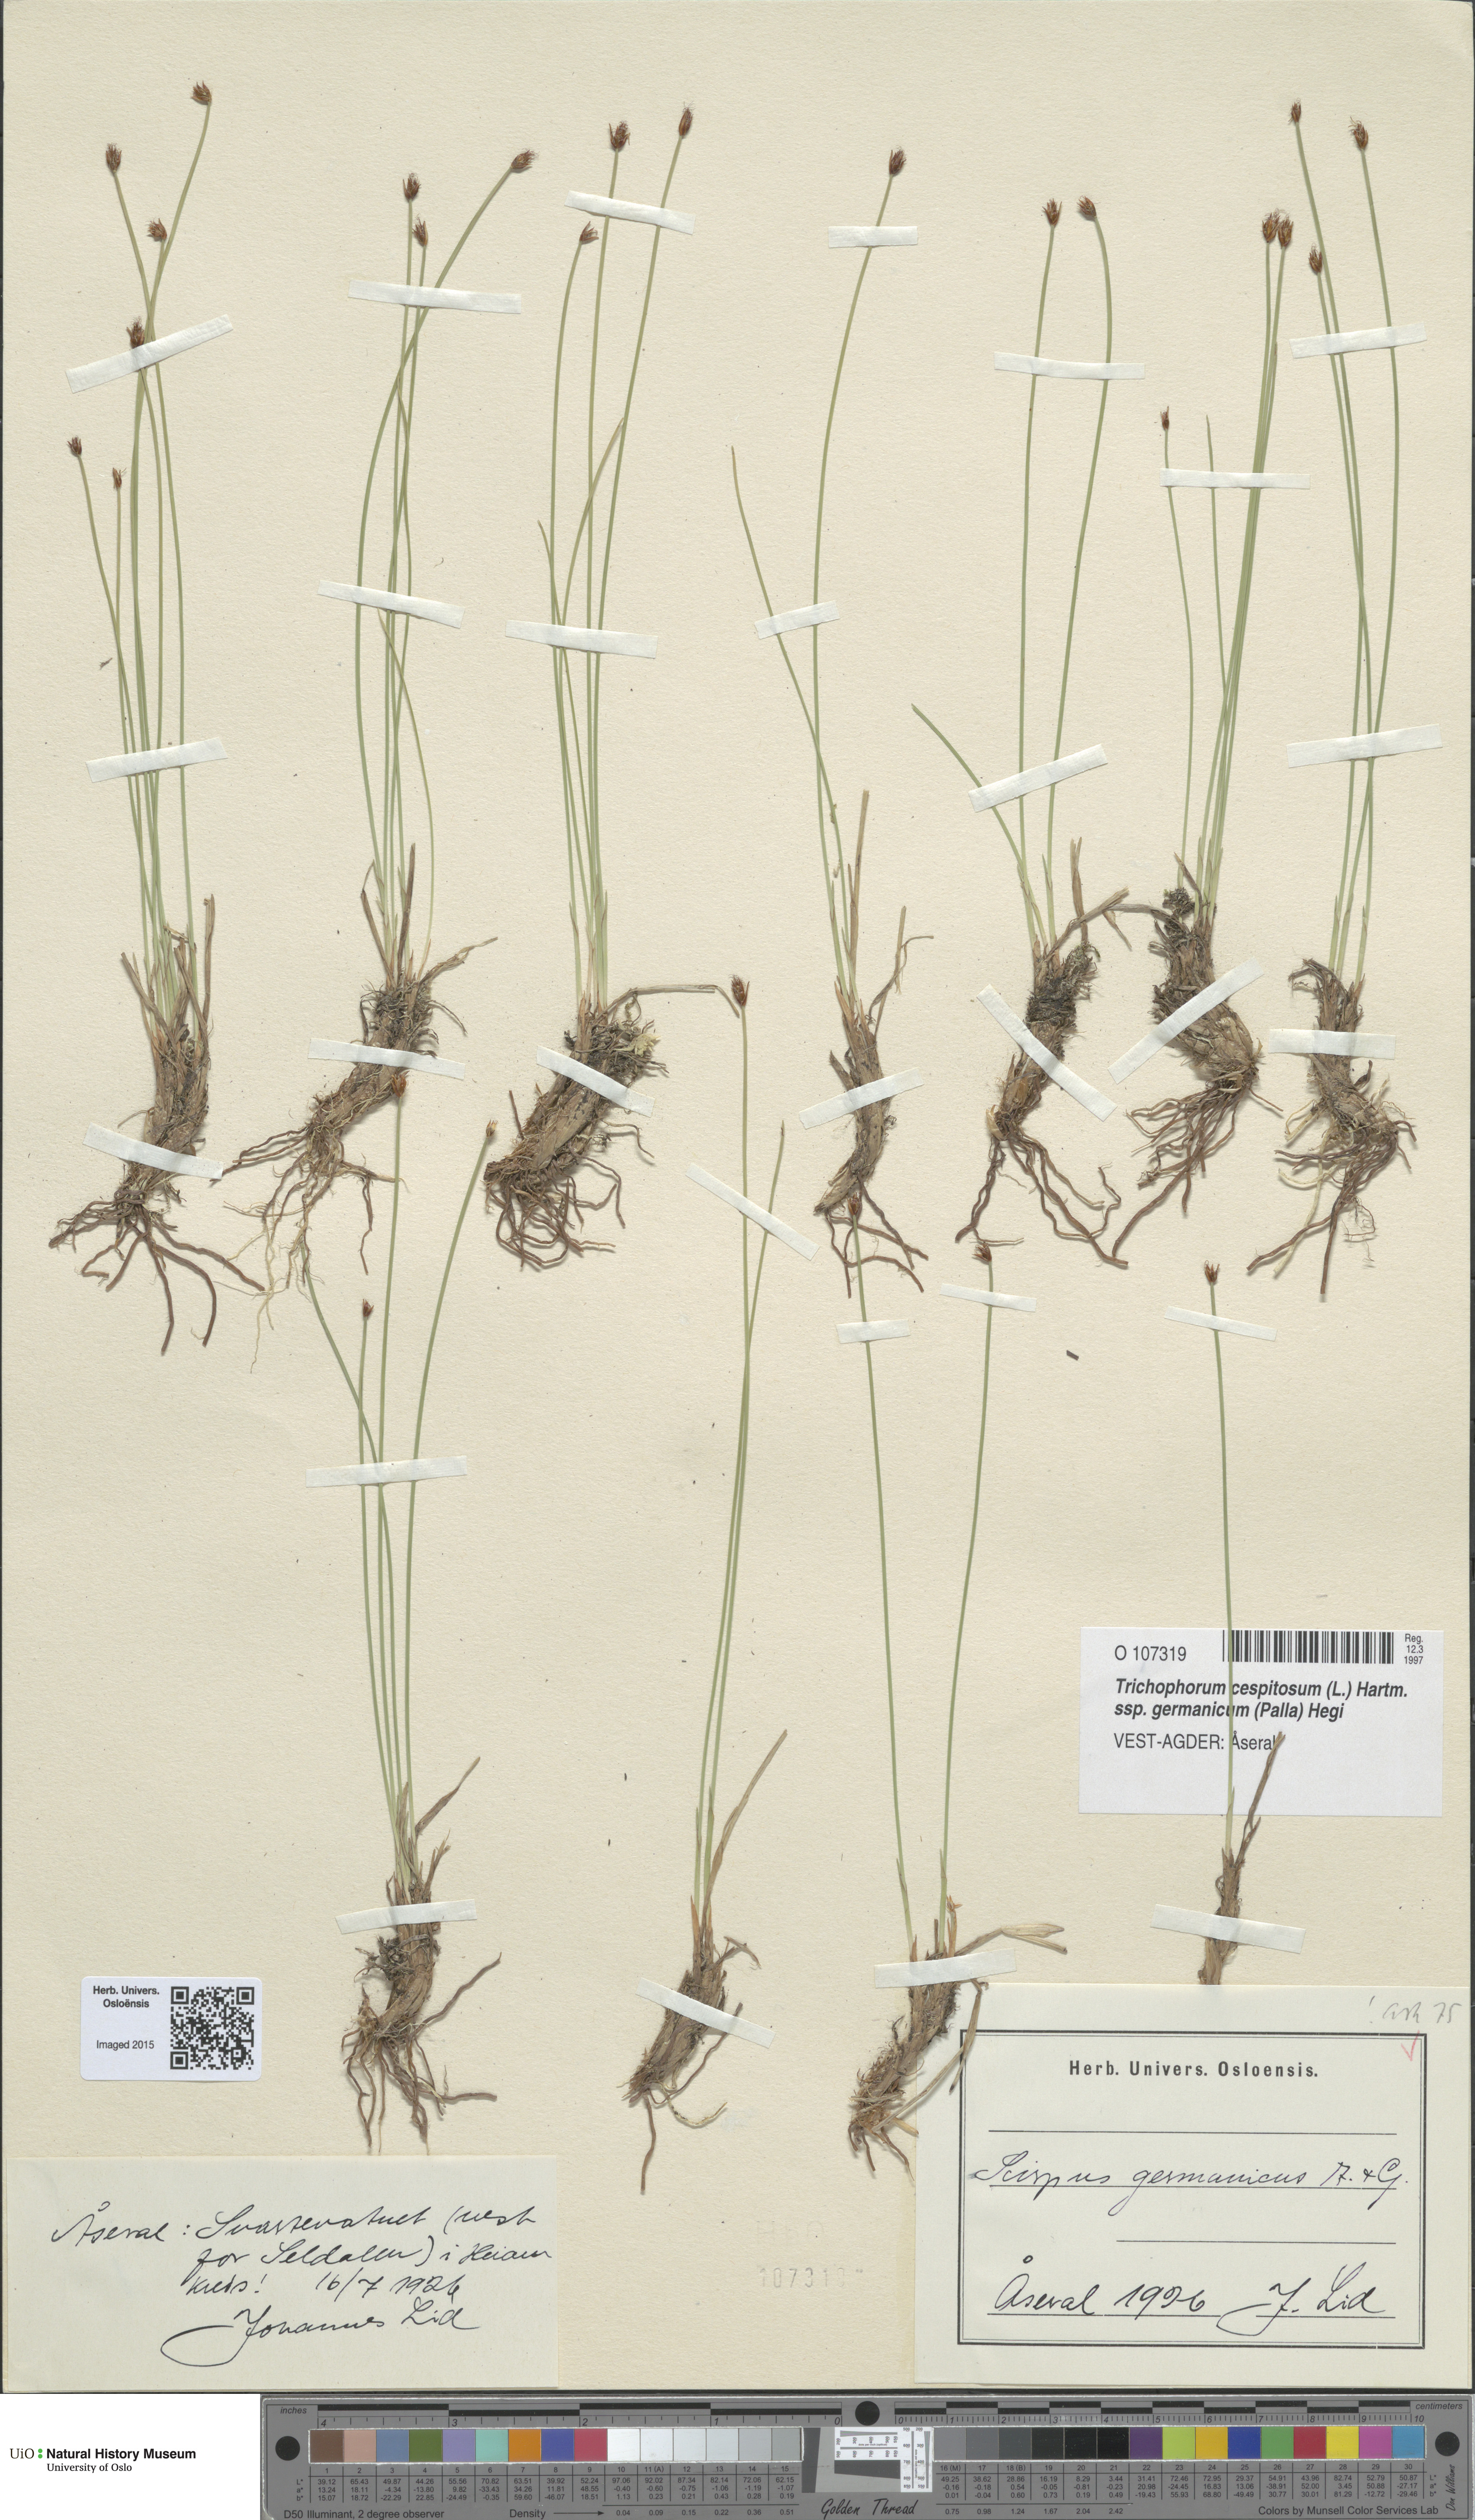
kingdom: Plantae
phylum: Tracheophyta
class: Liliopsida
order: Poales
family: Cyperaceae
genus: Trichophorum
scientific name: Trichophorum cespitosum
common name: Cespitose bulrush
